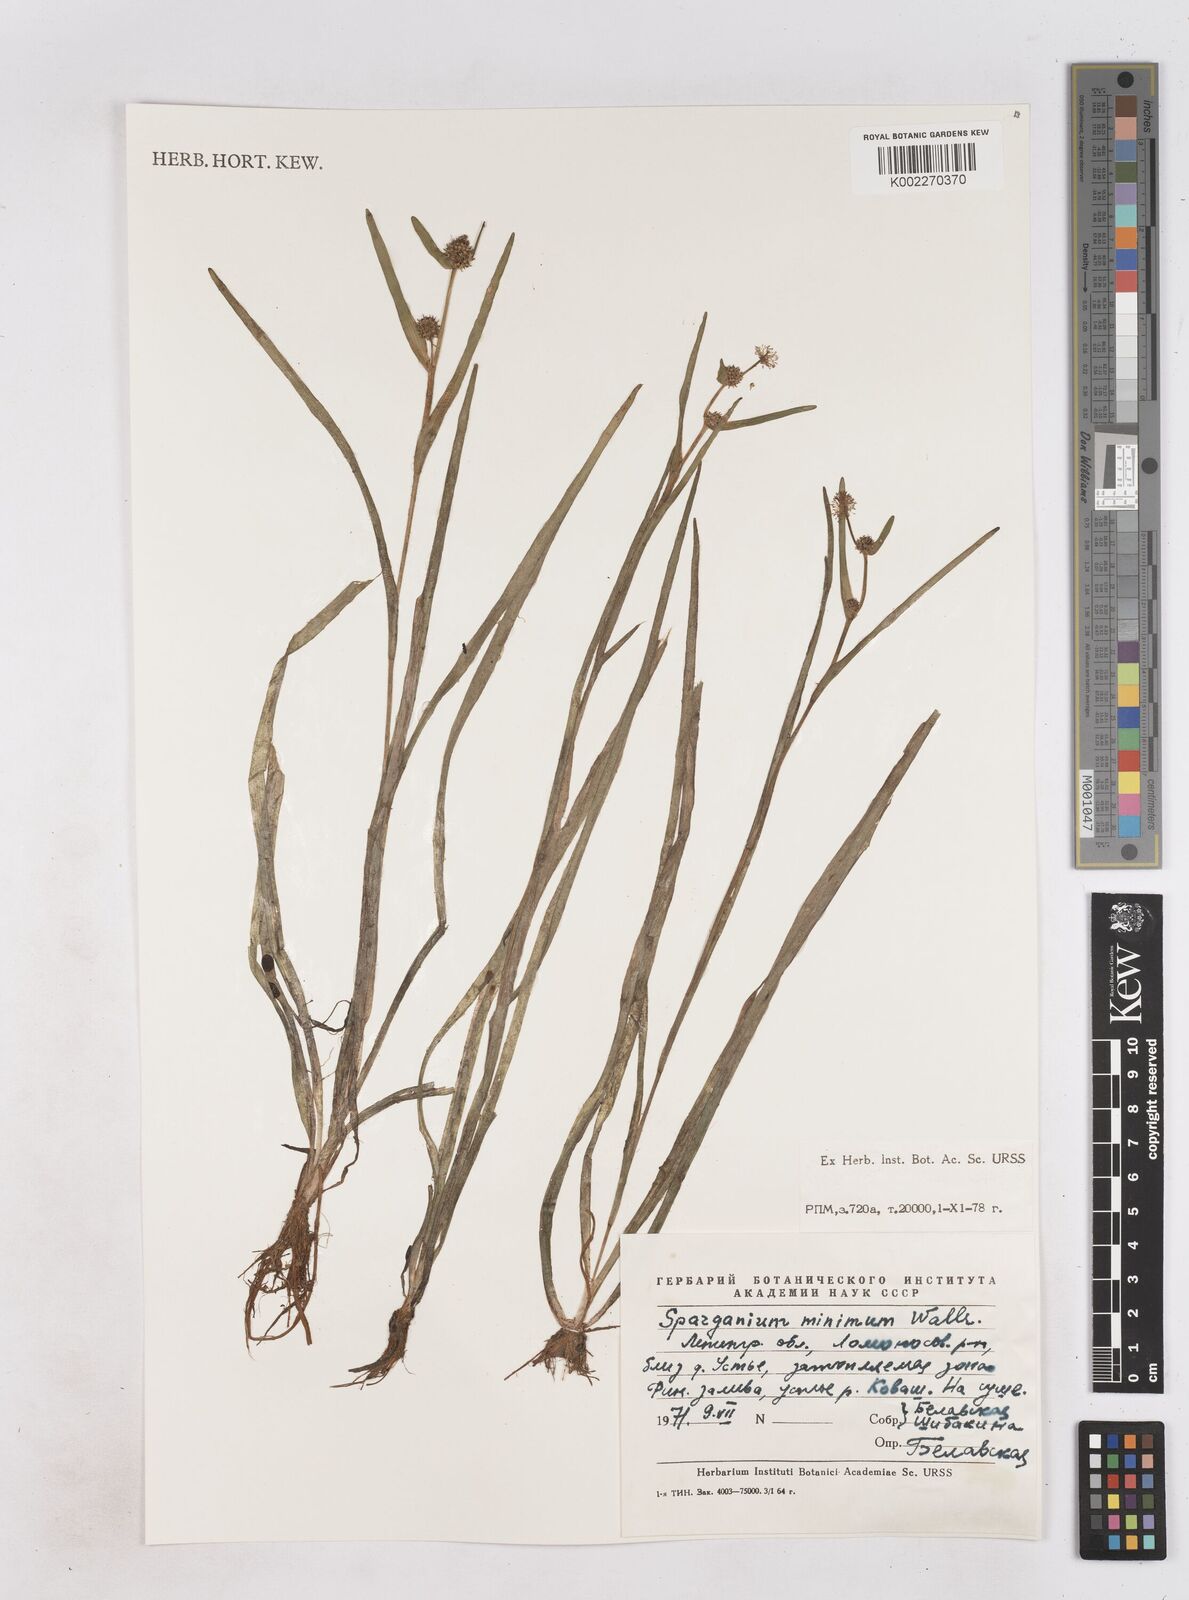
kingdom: Plantae
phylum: Tracheophyta
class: Liliopsida
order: Poales
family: Typhaceae
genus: Sparganium
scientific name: Sparganium natans
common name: Least bur-reed
